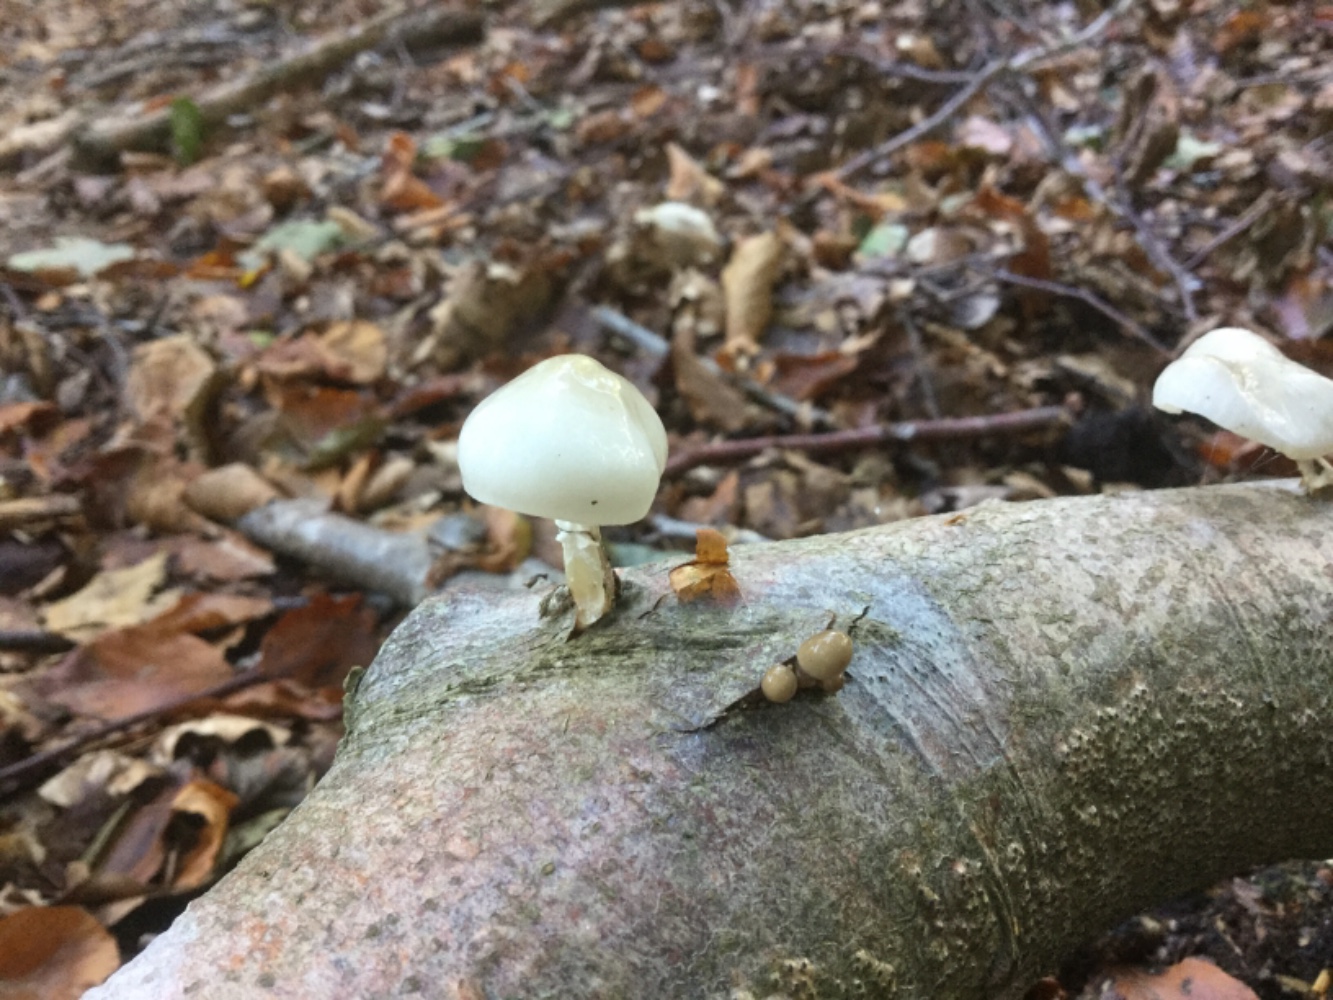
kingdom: Fungi
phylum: Basidiomycota
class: Agaricomycetes
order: Agaricales
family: Physalacriaceae
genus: Mucidula
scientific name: Mucidula mucida
